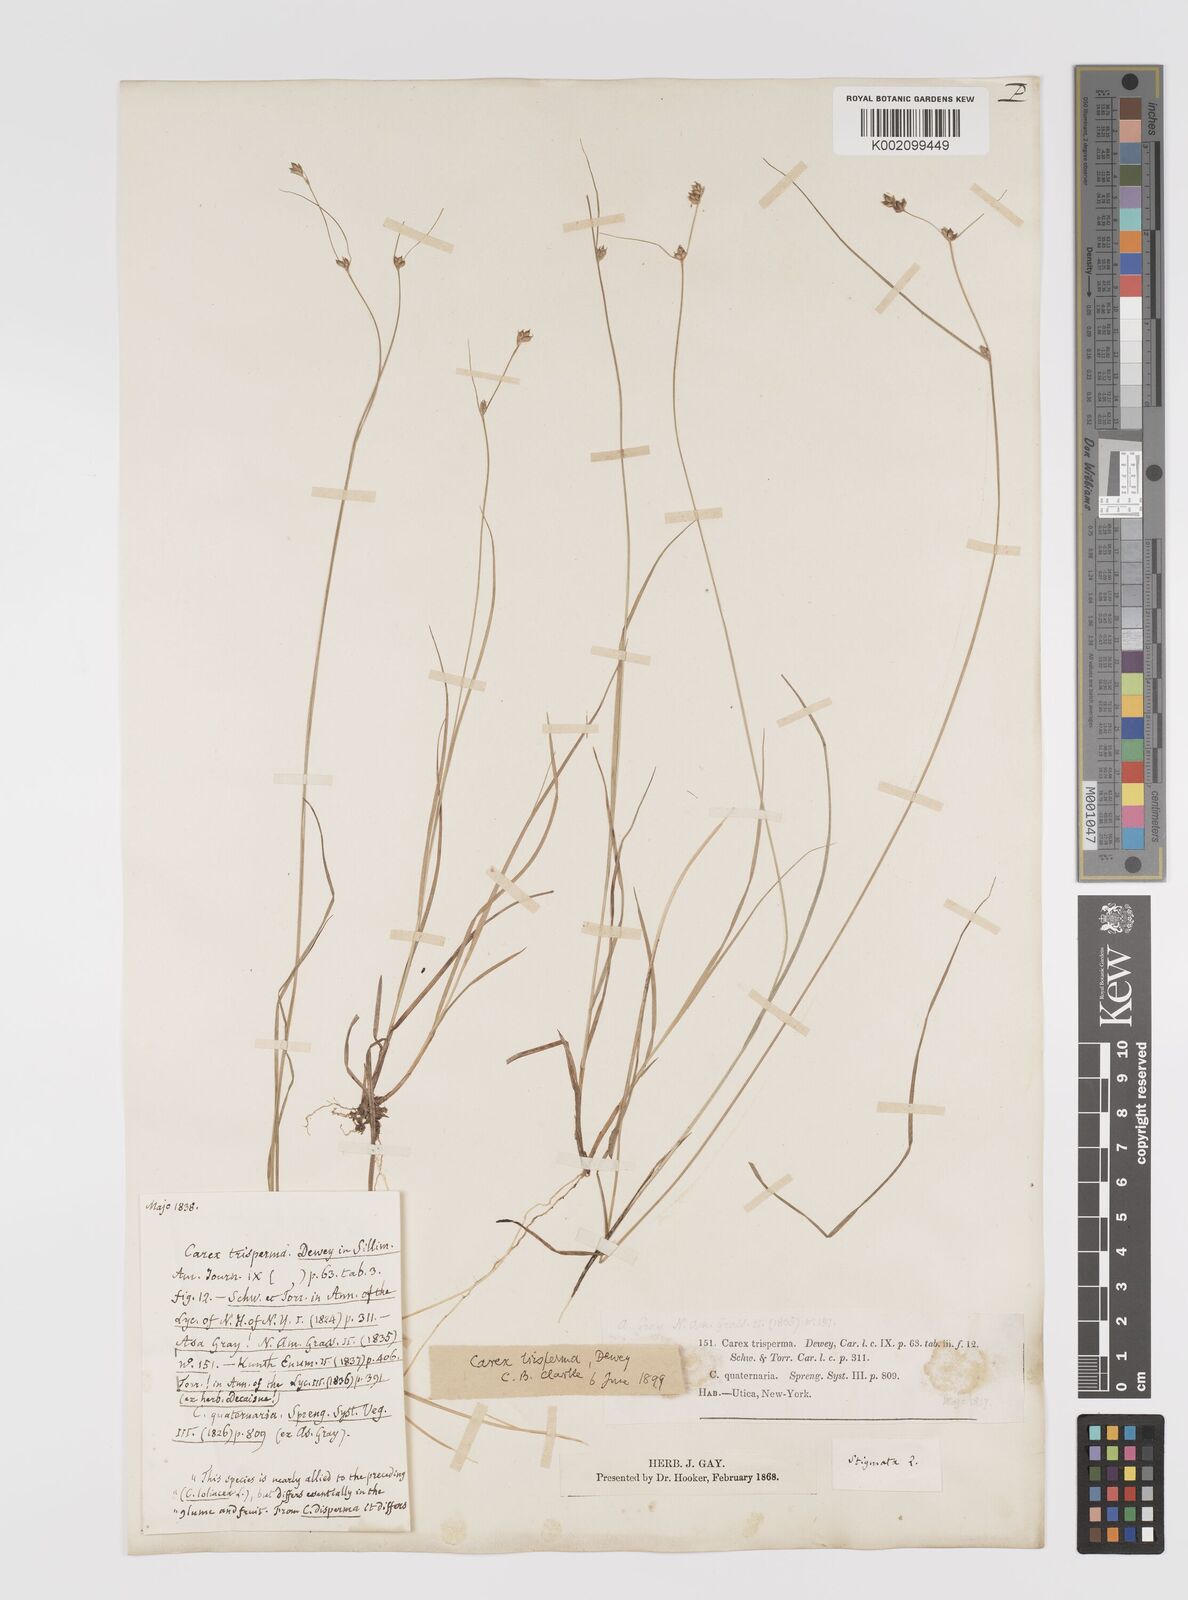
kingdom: Plantae
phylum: Tracheophyta
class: Liliopsida
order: Poales
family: Cyperaceae
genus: Carex
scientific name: Carex trisperma
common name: Three-seeded sedge
